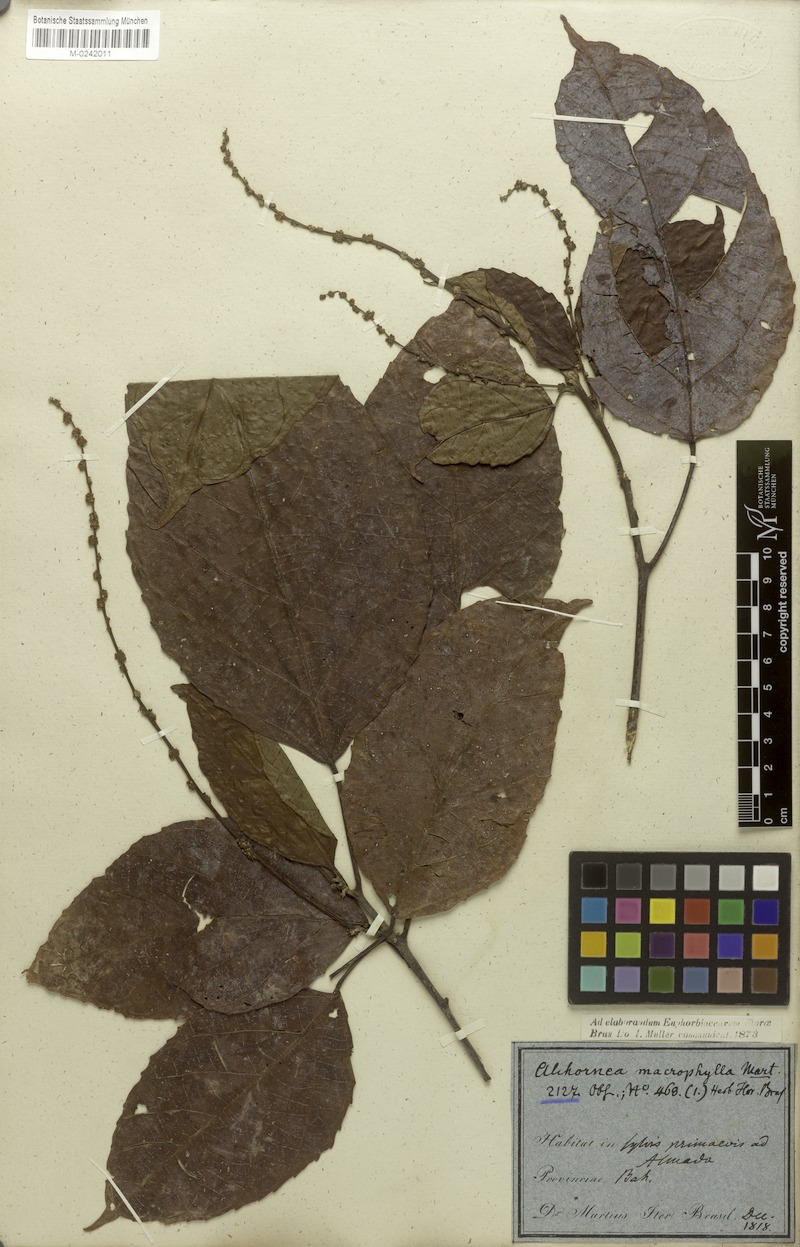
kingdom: Plantae
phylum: Tracheophyta
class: Magnoliopsida
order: Malpighiales
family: Euphorbiaceae
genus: Aparisthmium
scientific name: Aparisthmium cordatum
